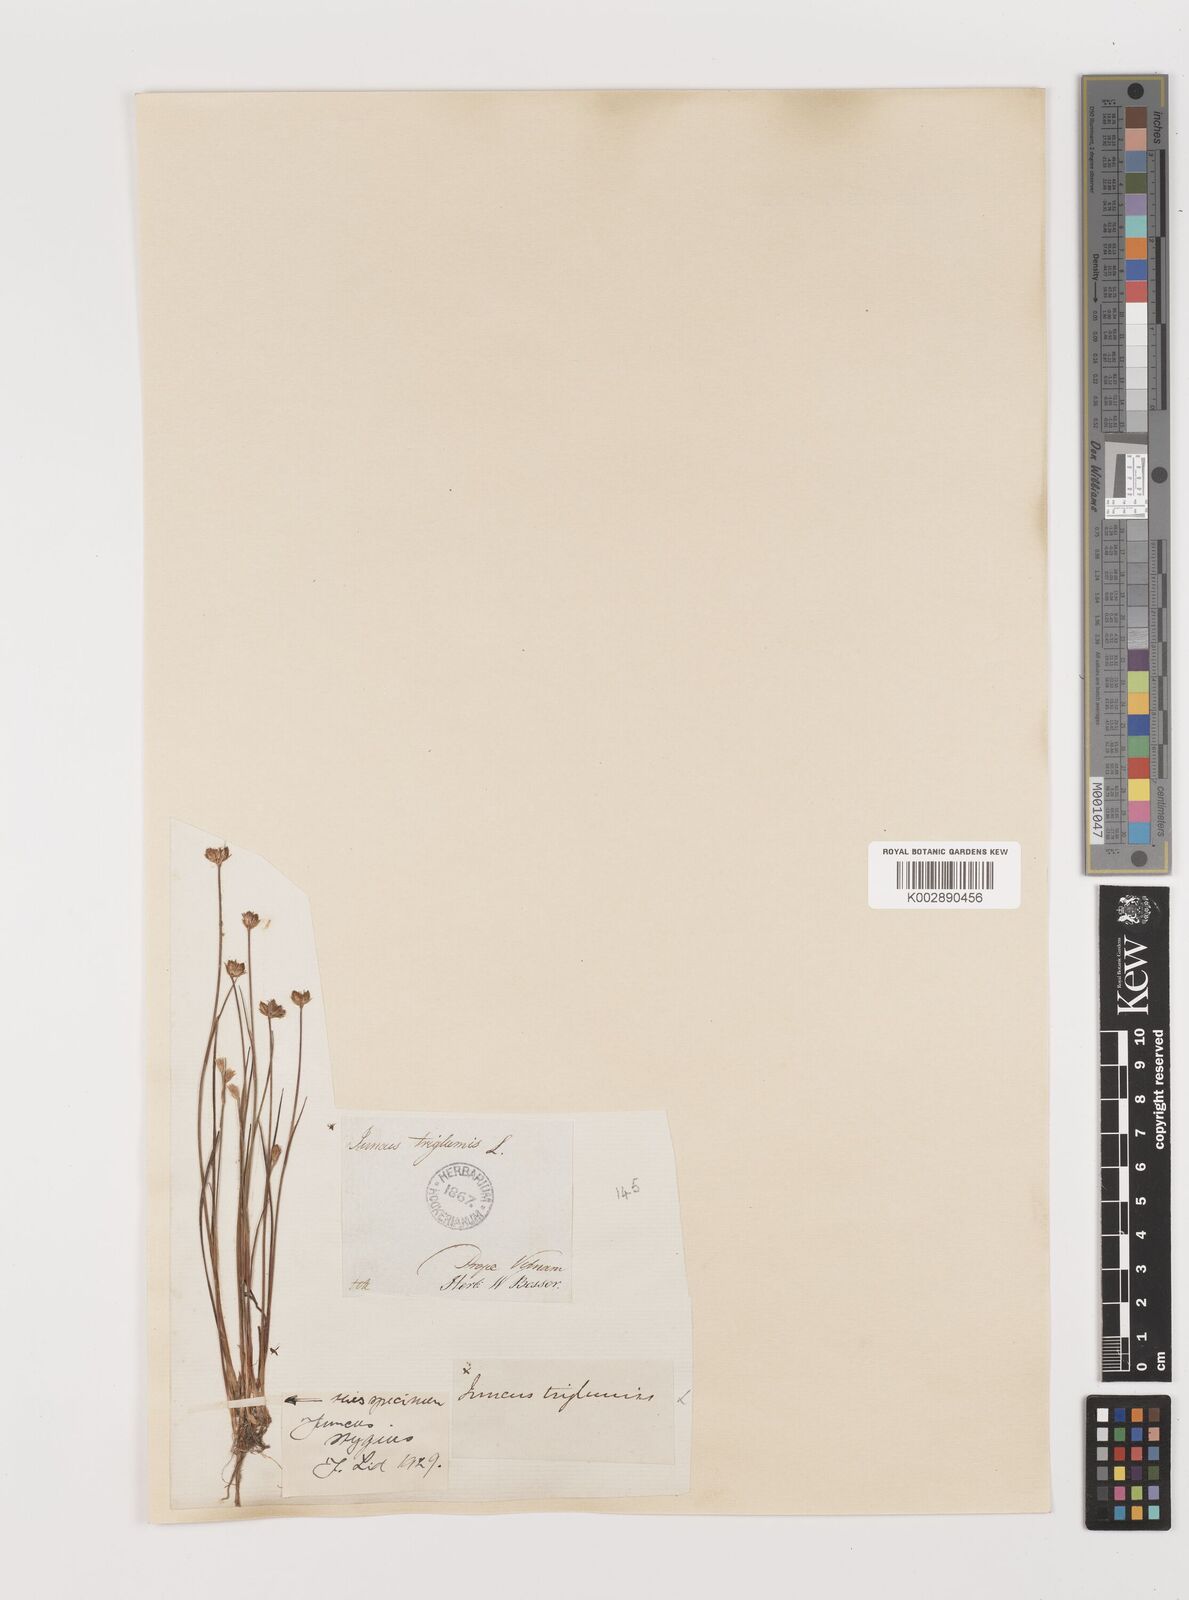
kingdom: Plantae
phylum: Tracheophyta
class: Liliopsida
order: Poales
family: Juncaceae
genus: Juncus
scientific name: Juncus triglumis
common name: Three-flowered rush
